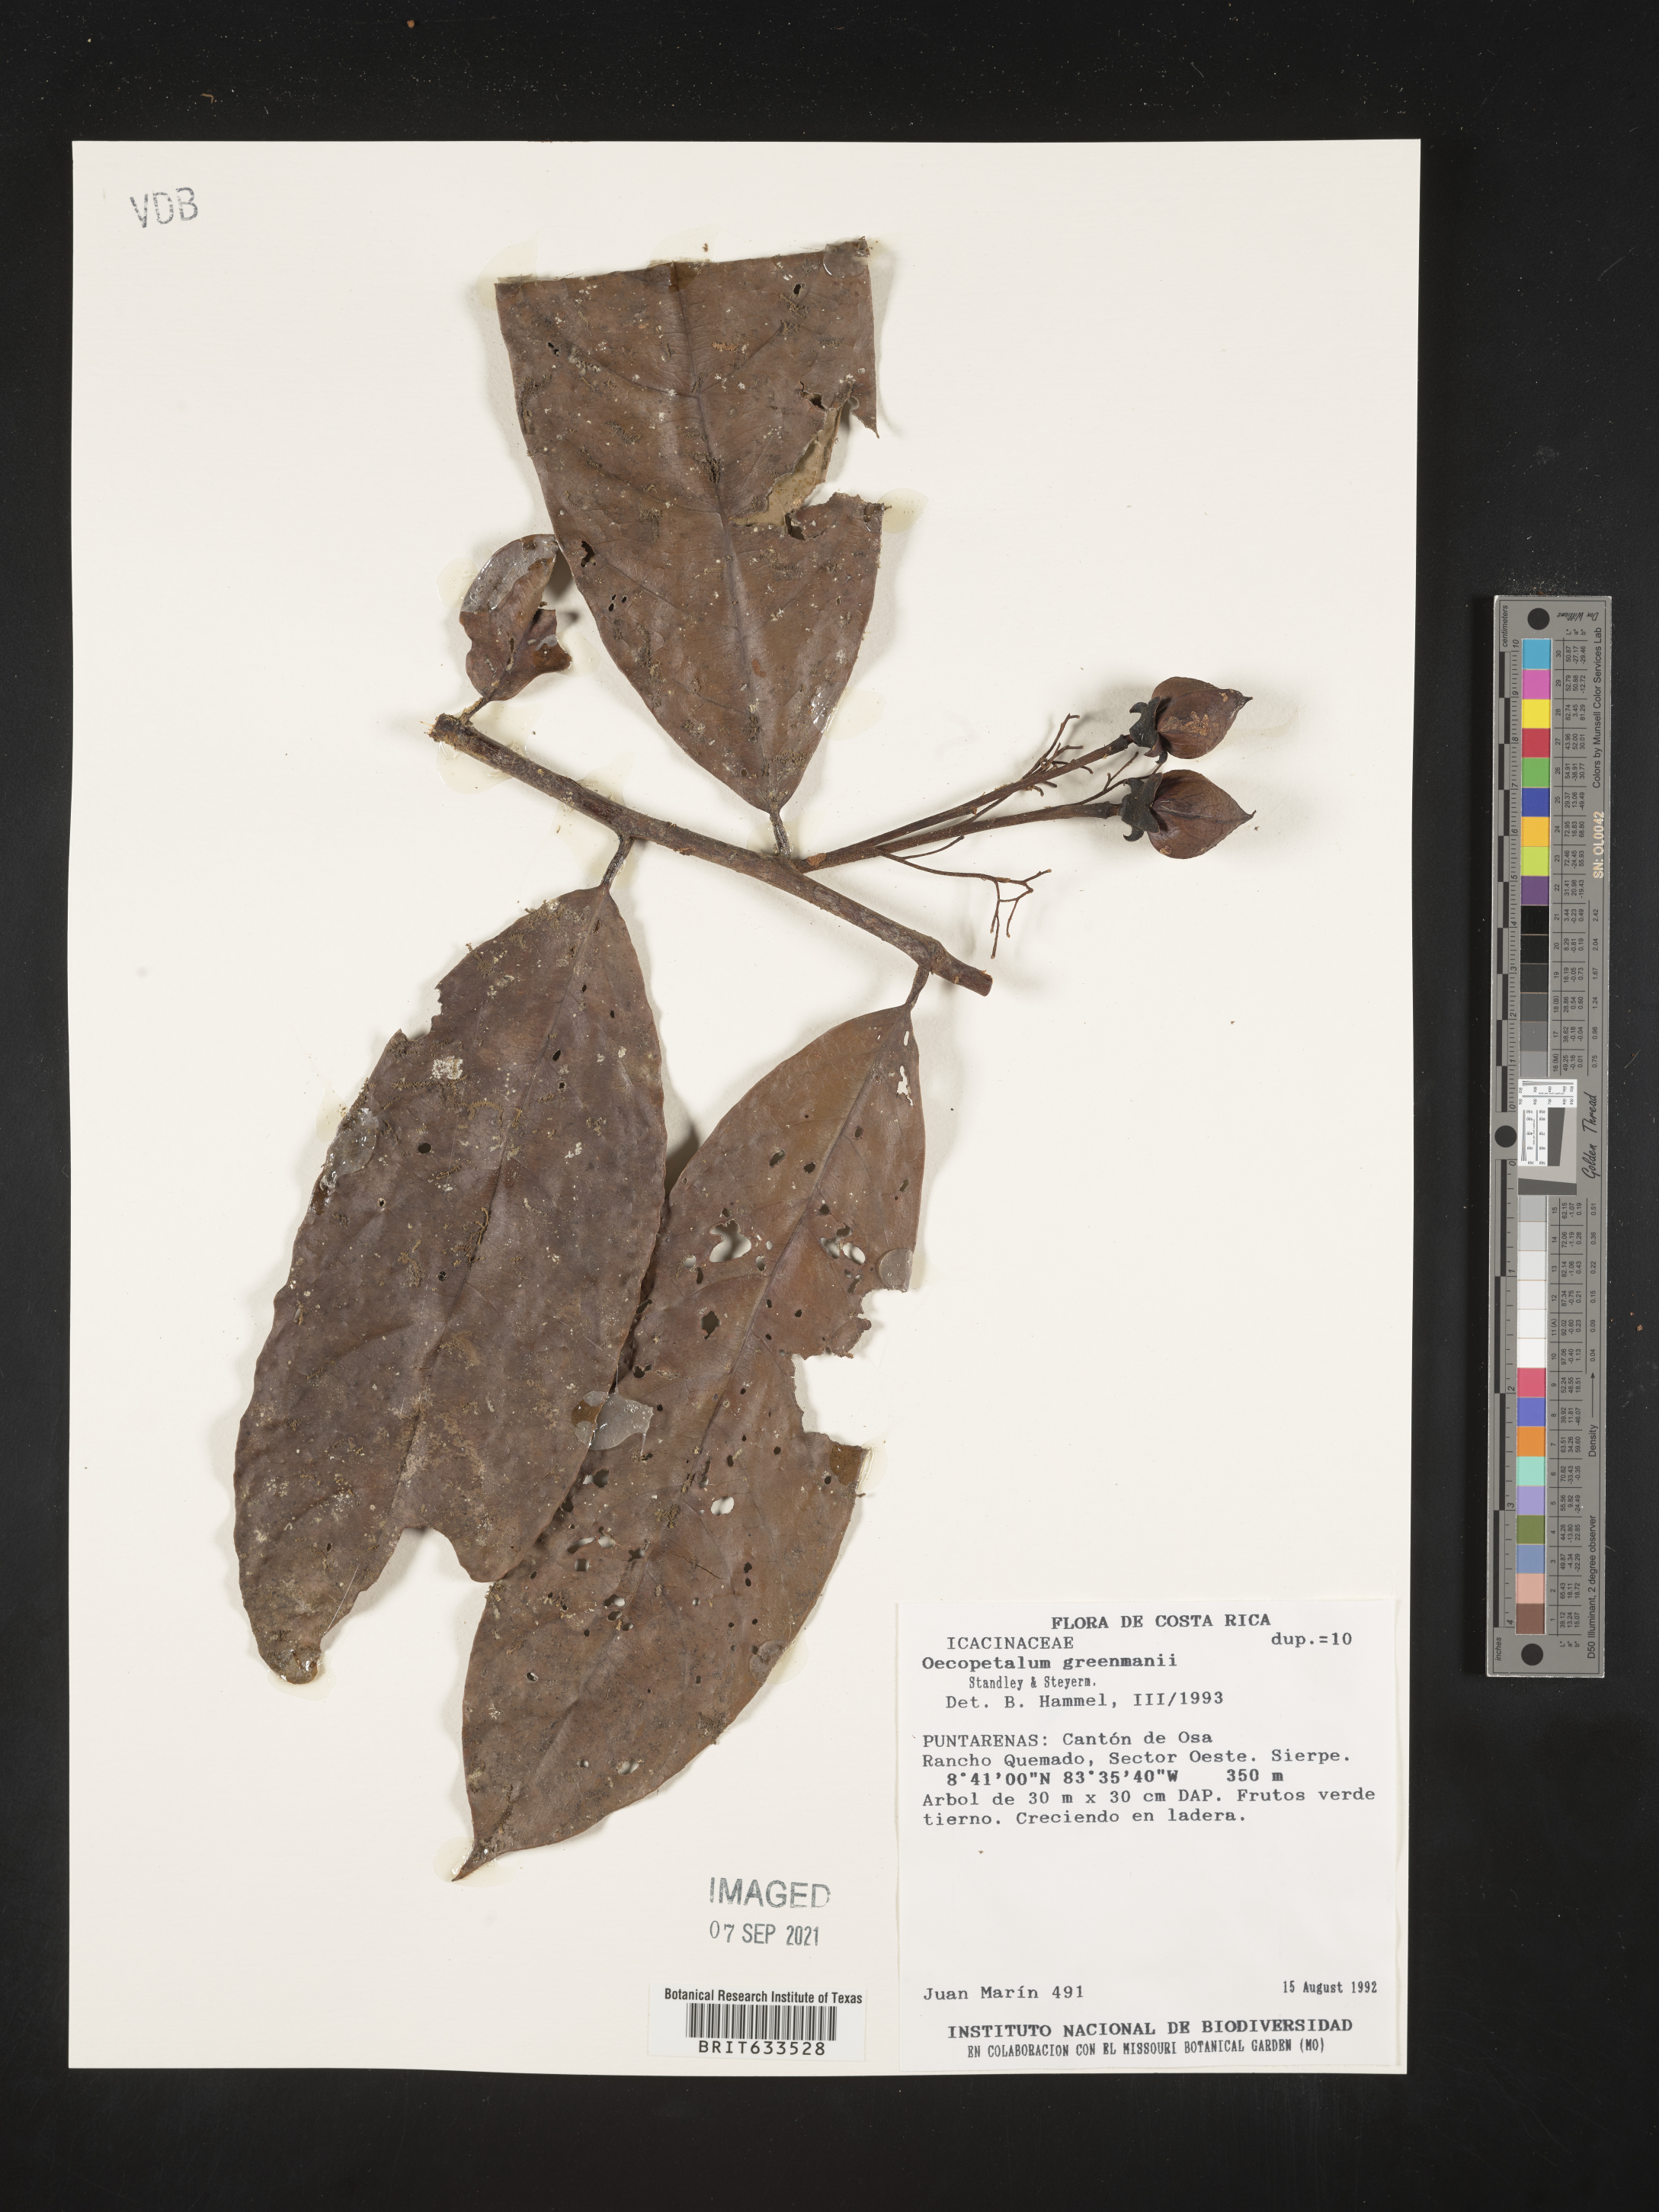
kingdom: Plantae
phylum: Tracheophyta
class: Magnoliopsida
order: Icacinales
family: Icacinaceae
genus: Oecopetalum
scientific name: Oecopetalum
